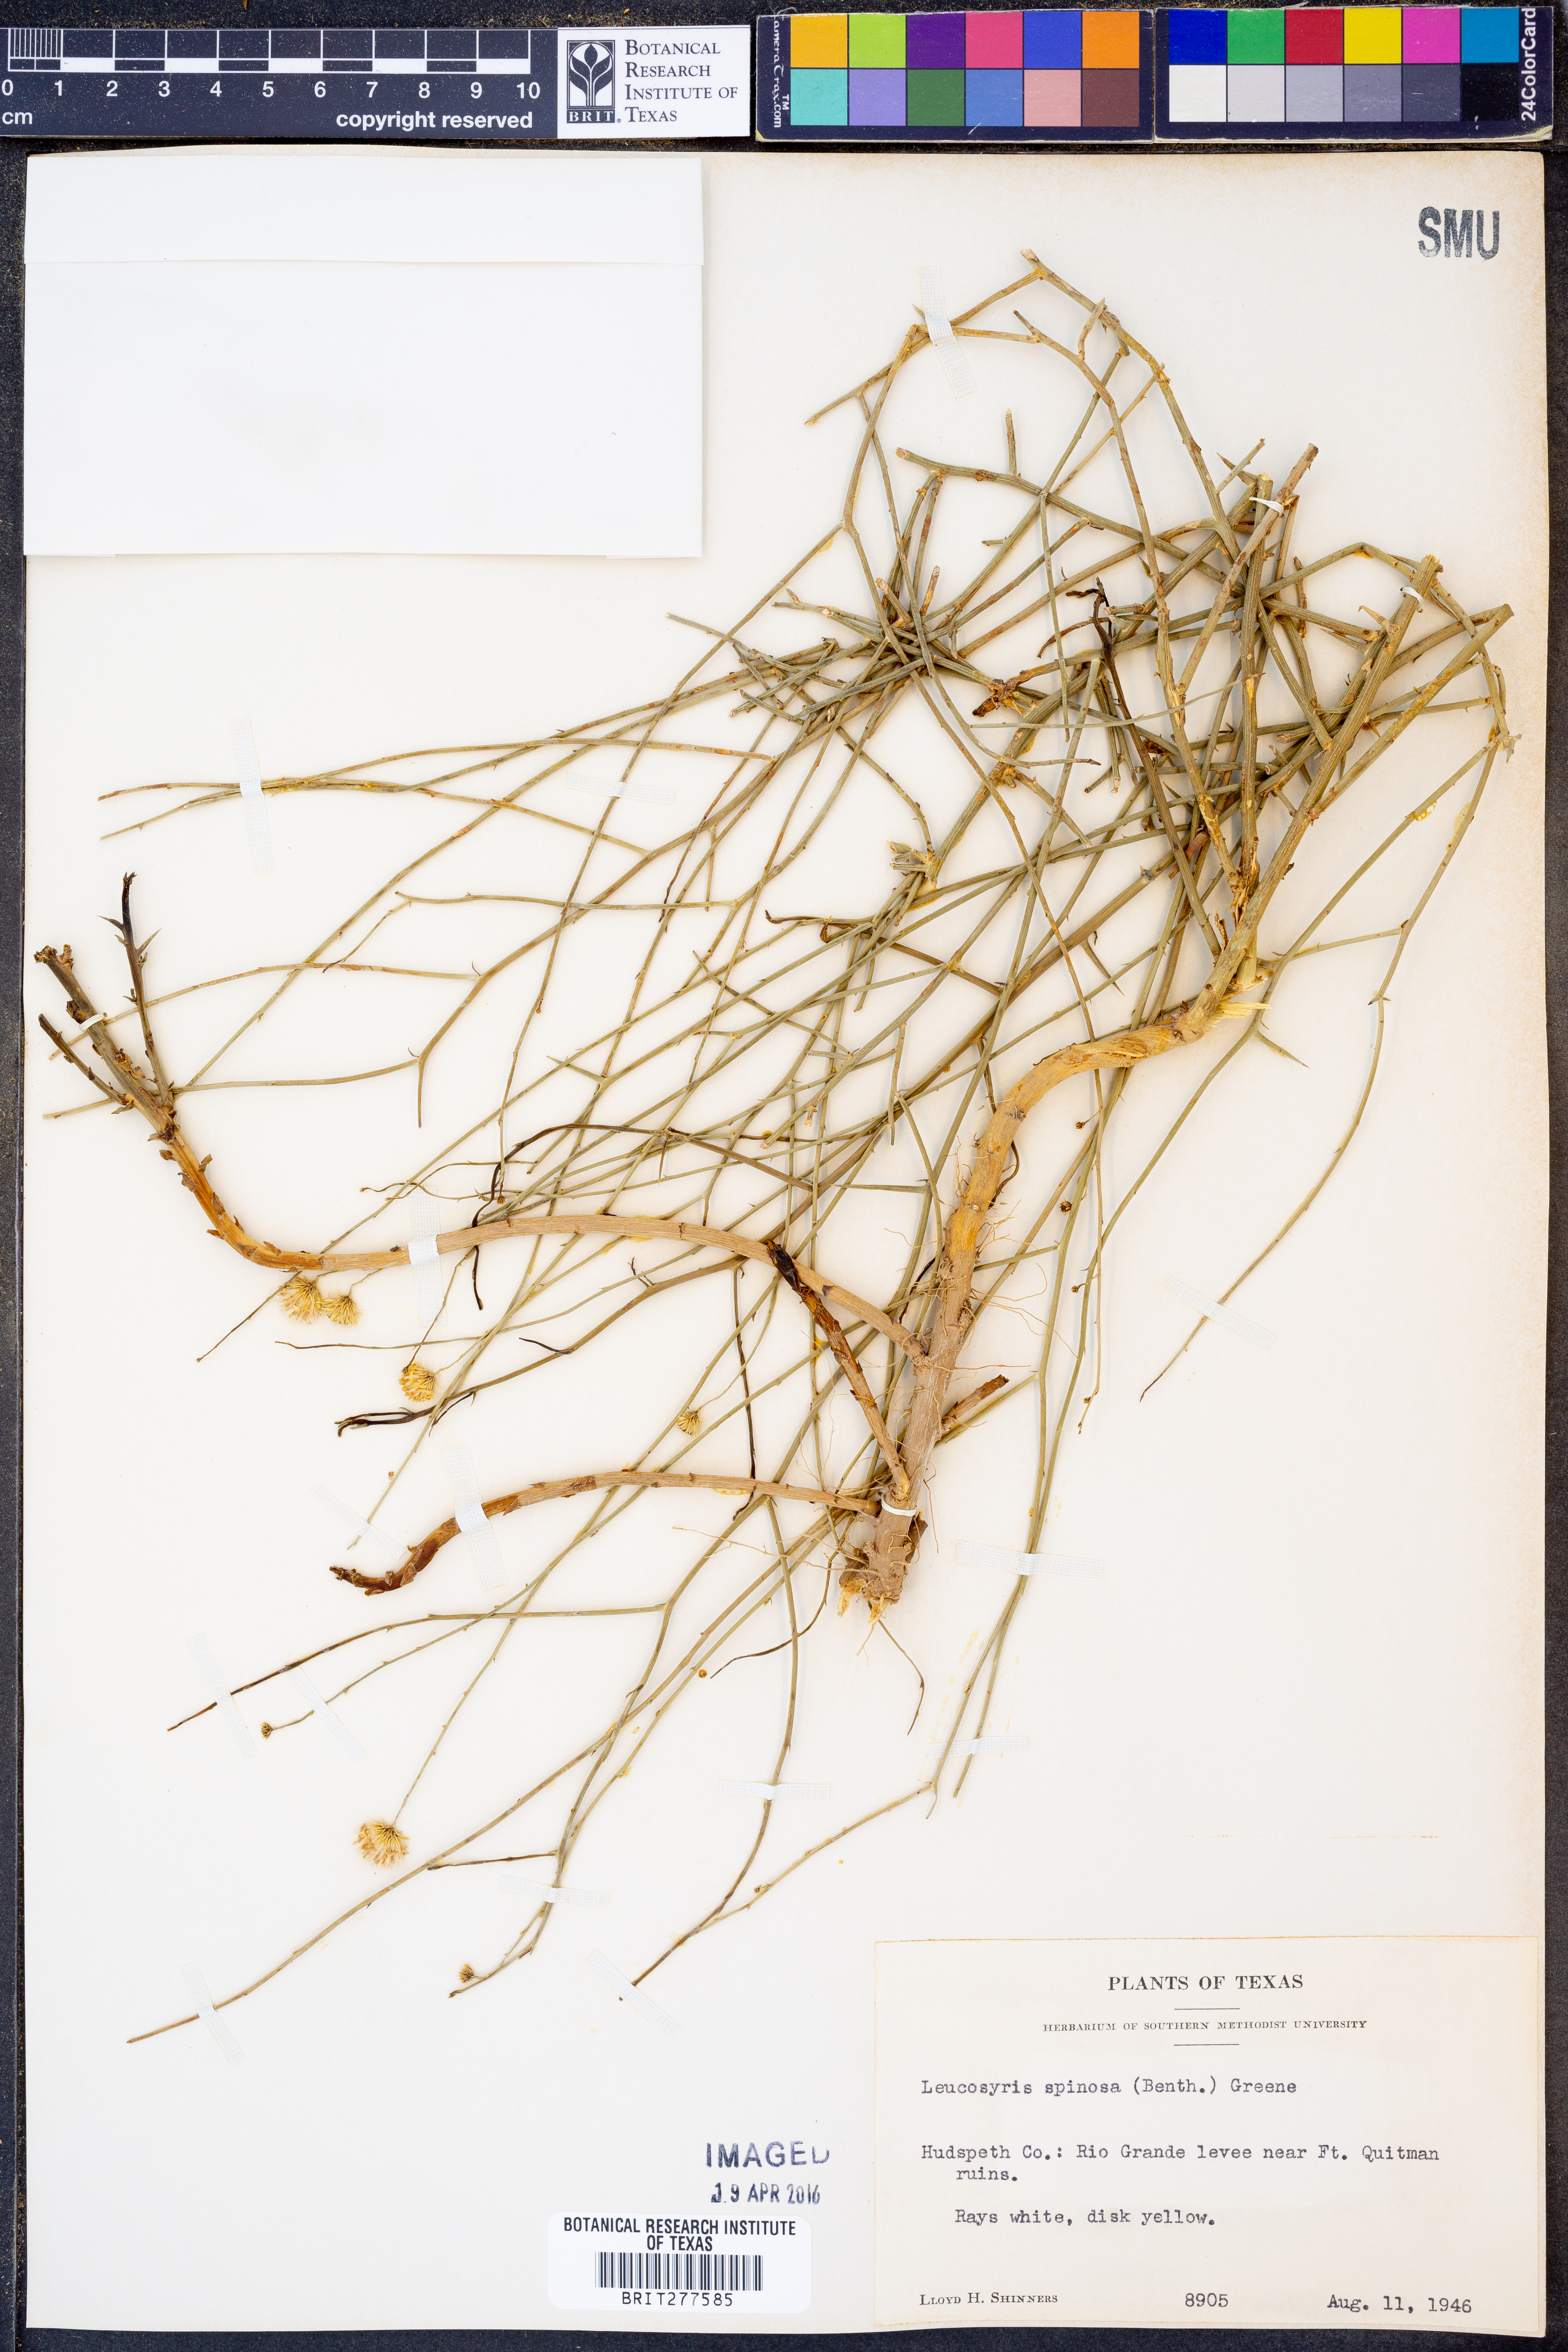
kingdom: Plantae
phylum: Tracheophyta
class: Magnoliopsida
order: Asterales
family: Asteraceae
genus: Chloracantha
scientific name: Chloracantha spinosa
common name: Mexican devilweed
